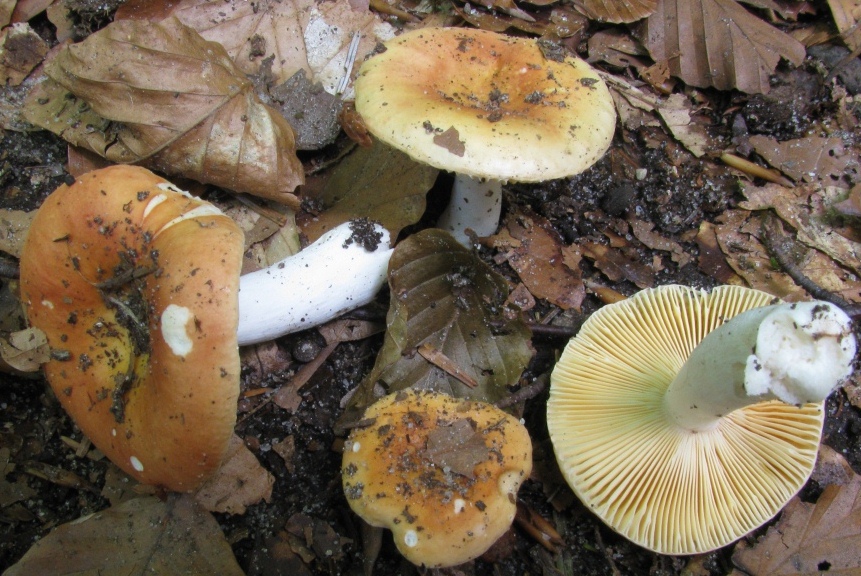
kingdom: Fungi
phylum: Basidiomycota
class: Agaricomycetes
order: Russulales
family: Russulaceae
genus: Russula
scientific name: Russula risigallina
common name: abrikos-skørhat
